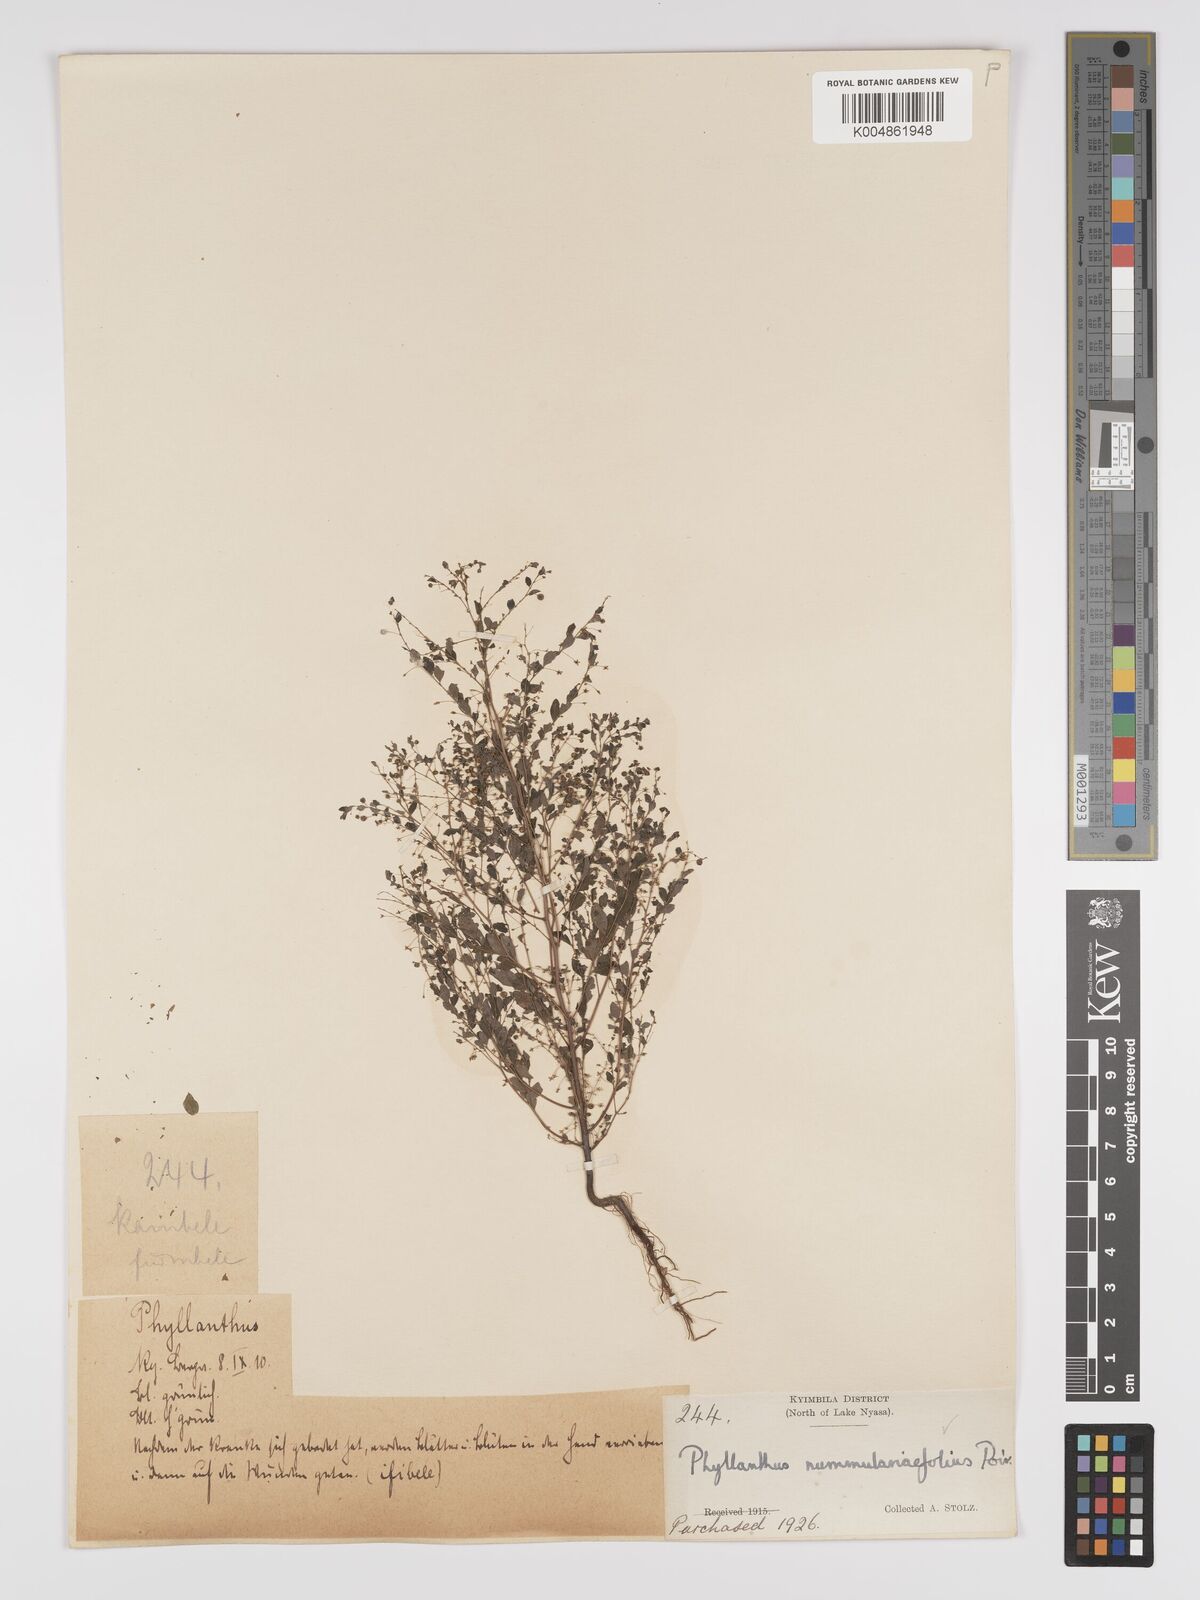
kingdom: Plantae
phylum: Tracheophyta
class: Magnoliopsida
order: Malpighiales
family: Phyllanthaceae
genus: Phyllanthus
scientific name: Phyllanthus nummulariifolius
